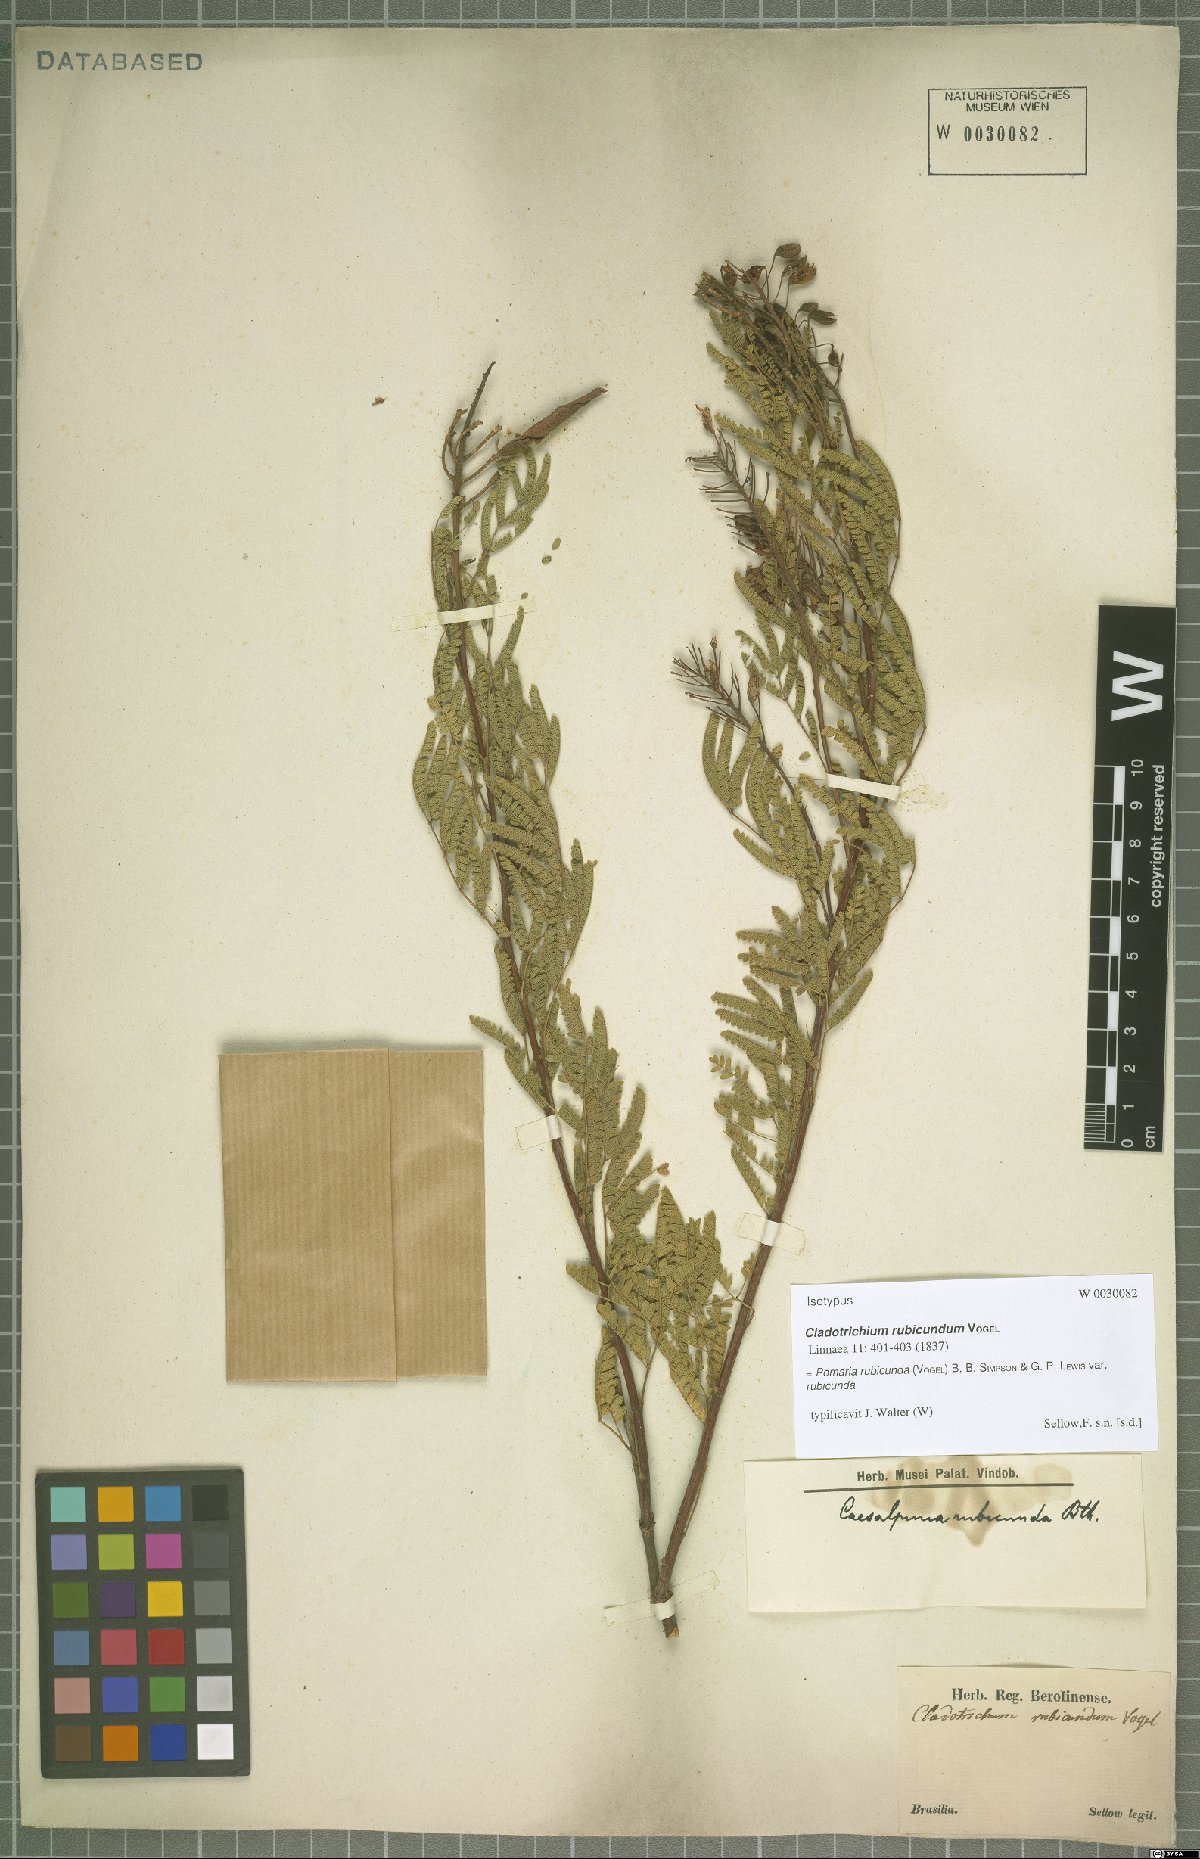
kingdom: Plantae
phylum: Tracheophyta
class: Magnoliopsida
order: Fabales
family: Fabaceae
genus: Pomaria
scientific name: Pomaria rubicunda
